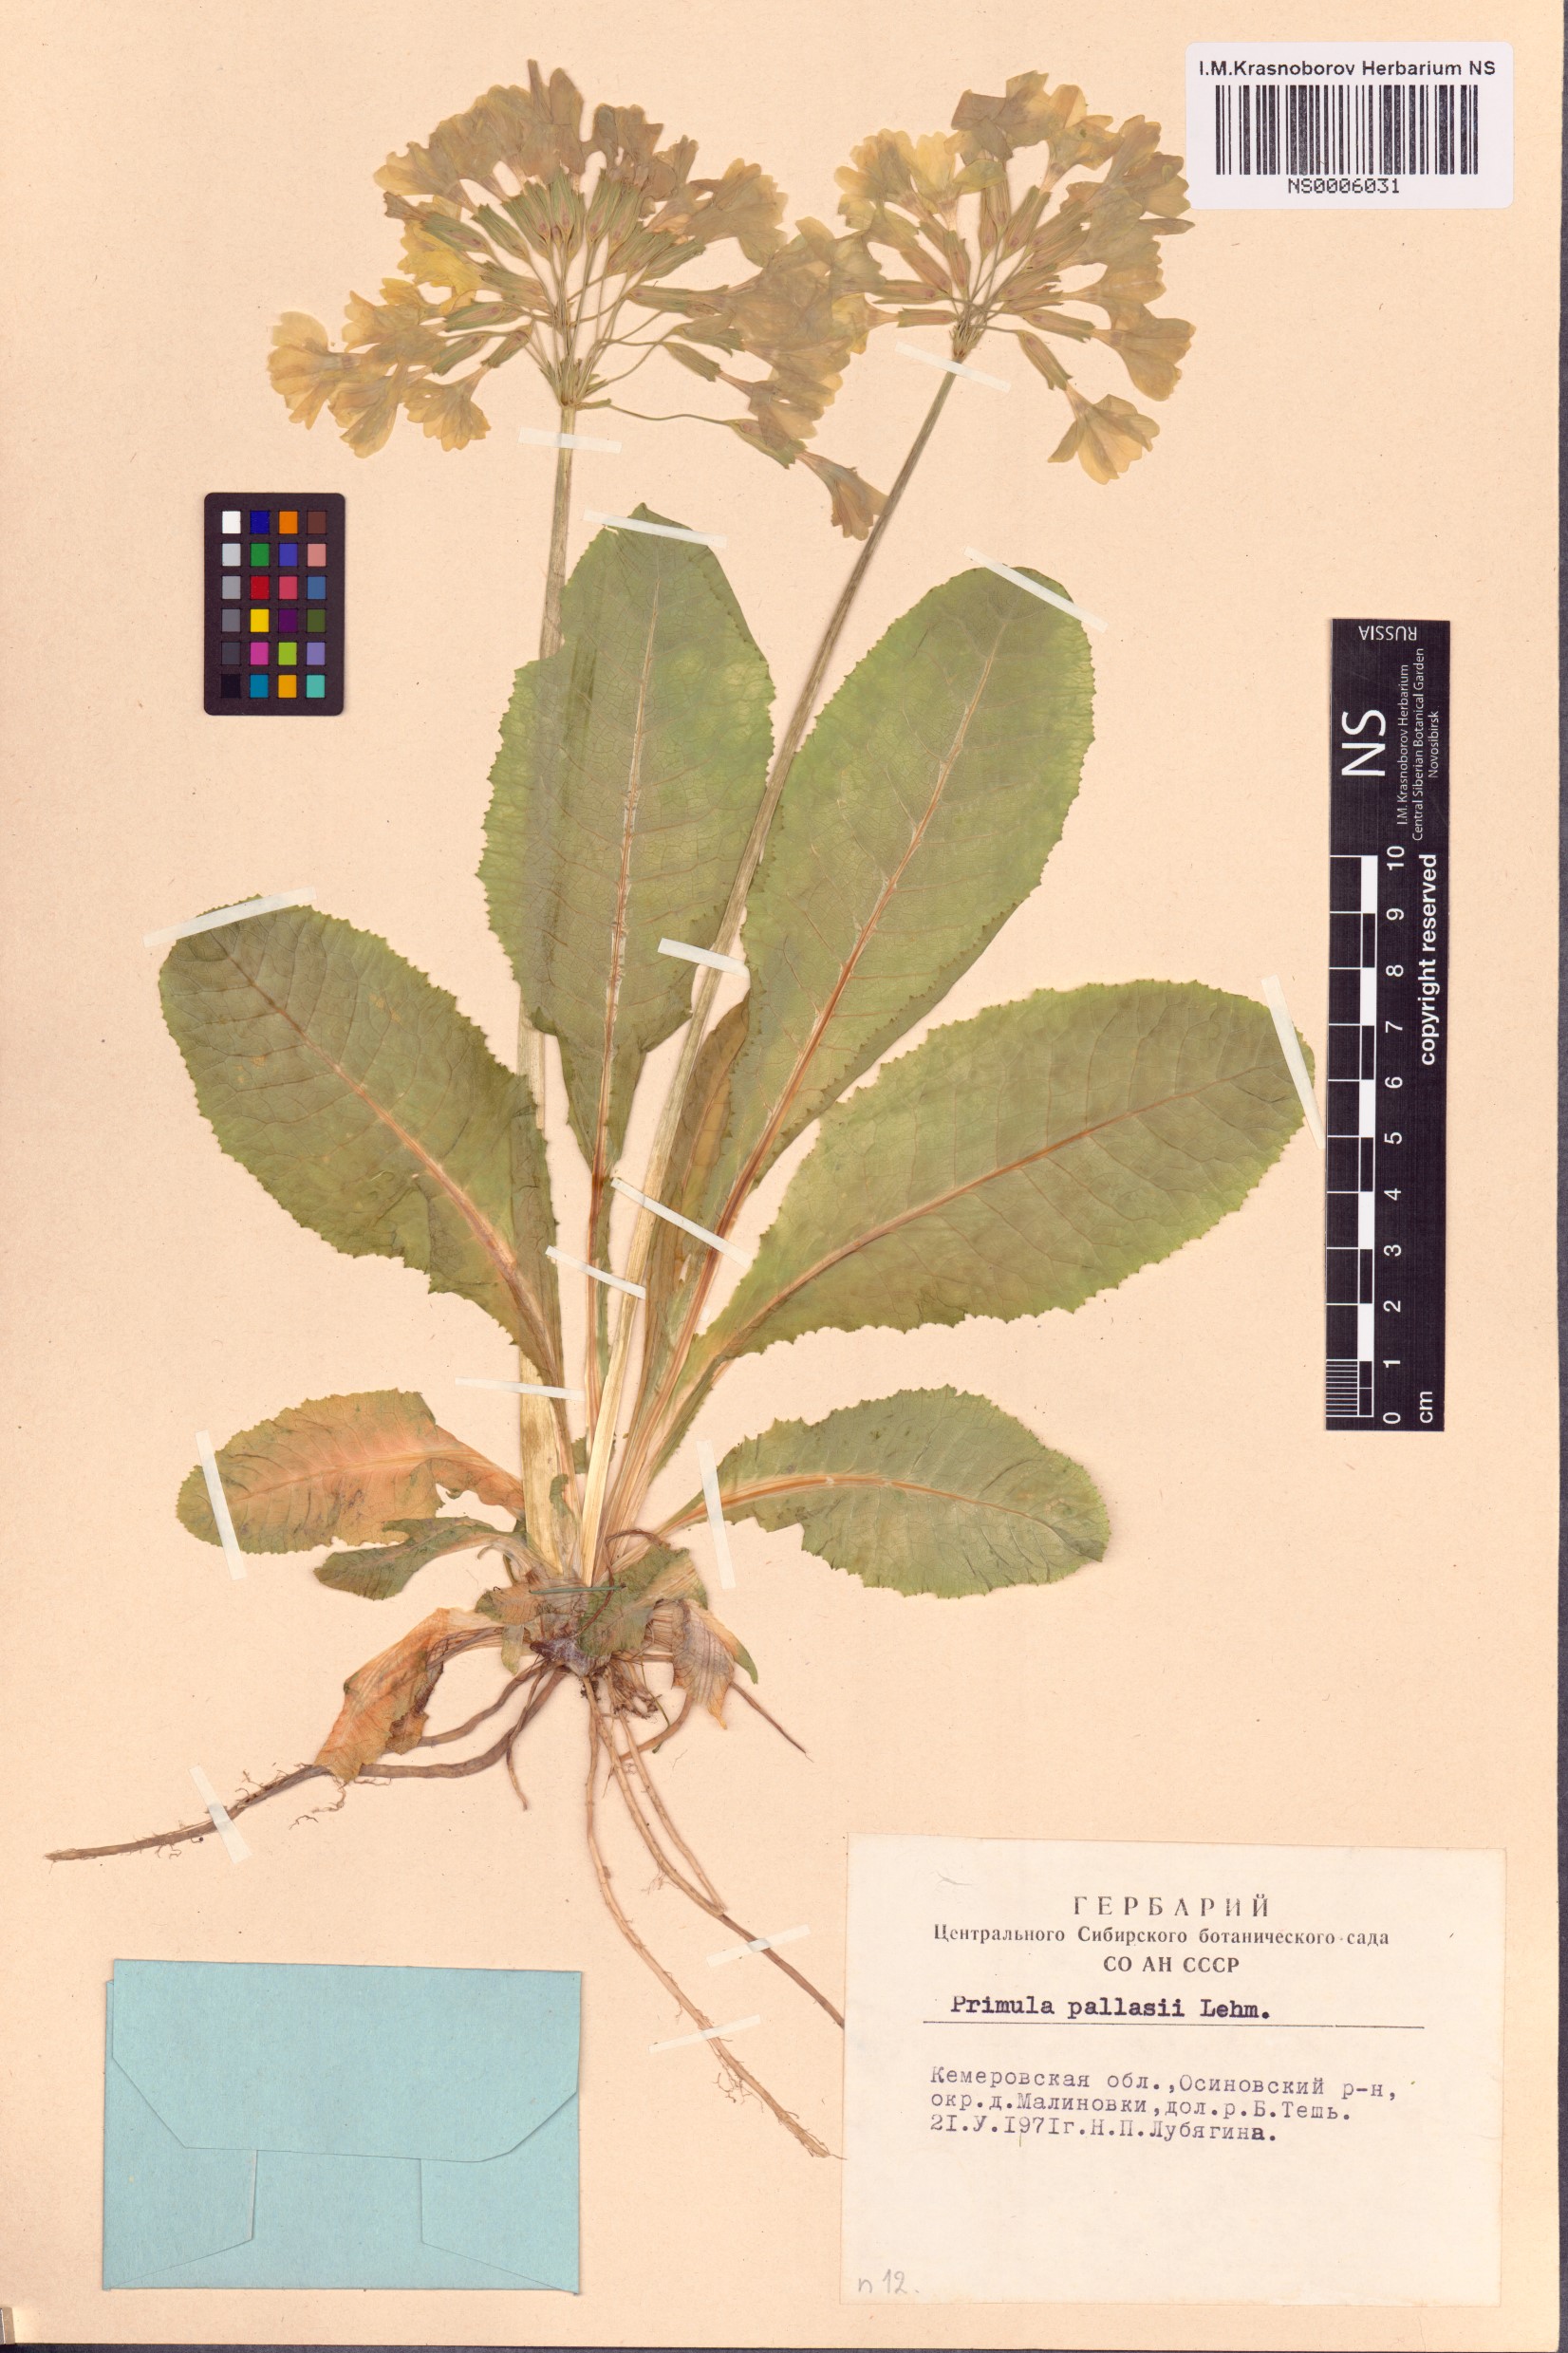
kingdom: Plantae
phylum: Tracheophyta
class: Magnoliopsida
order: Ericales
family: Primulaceae
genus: Primula
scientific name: Primula elatior
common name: Oxlip
